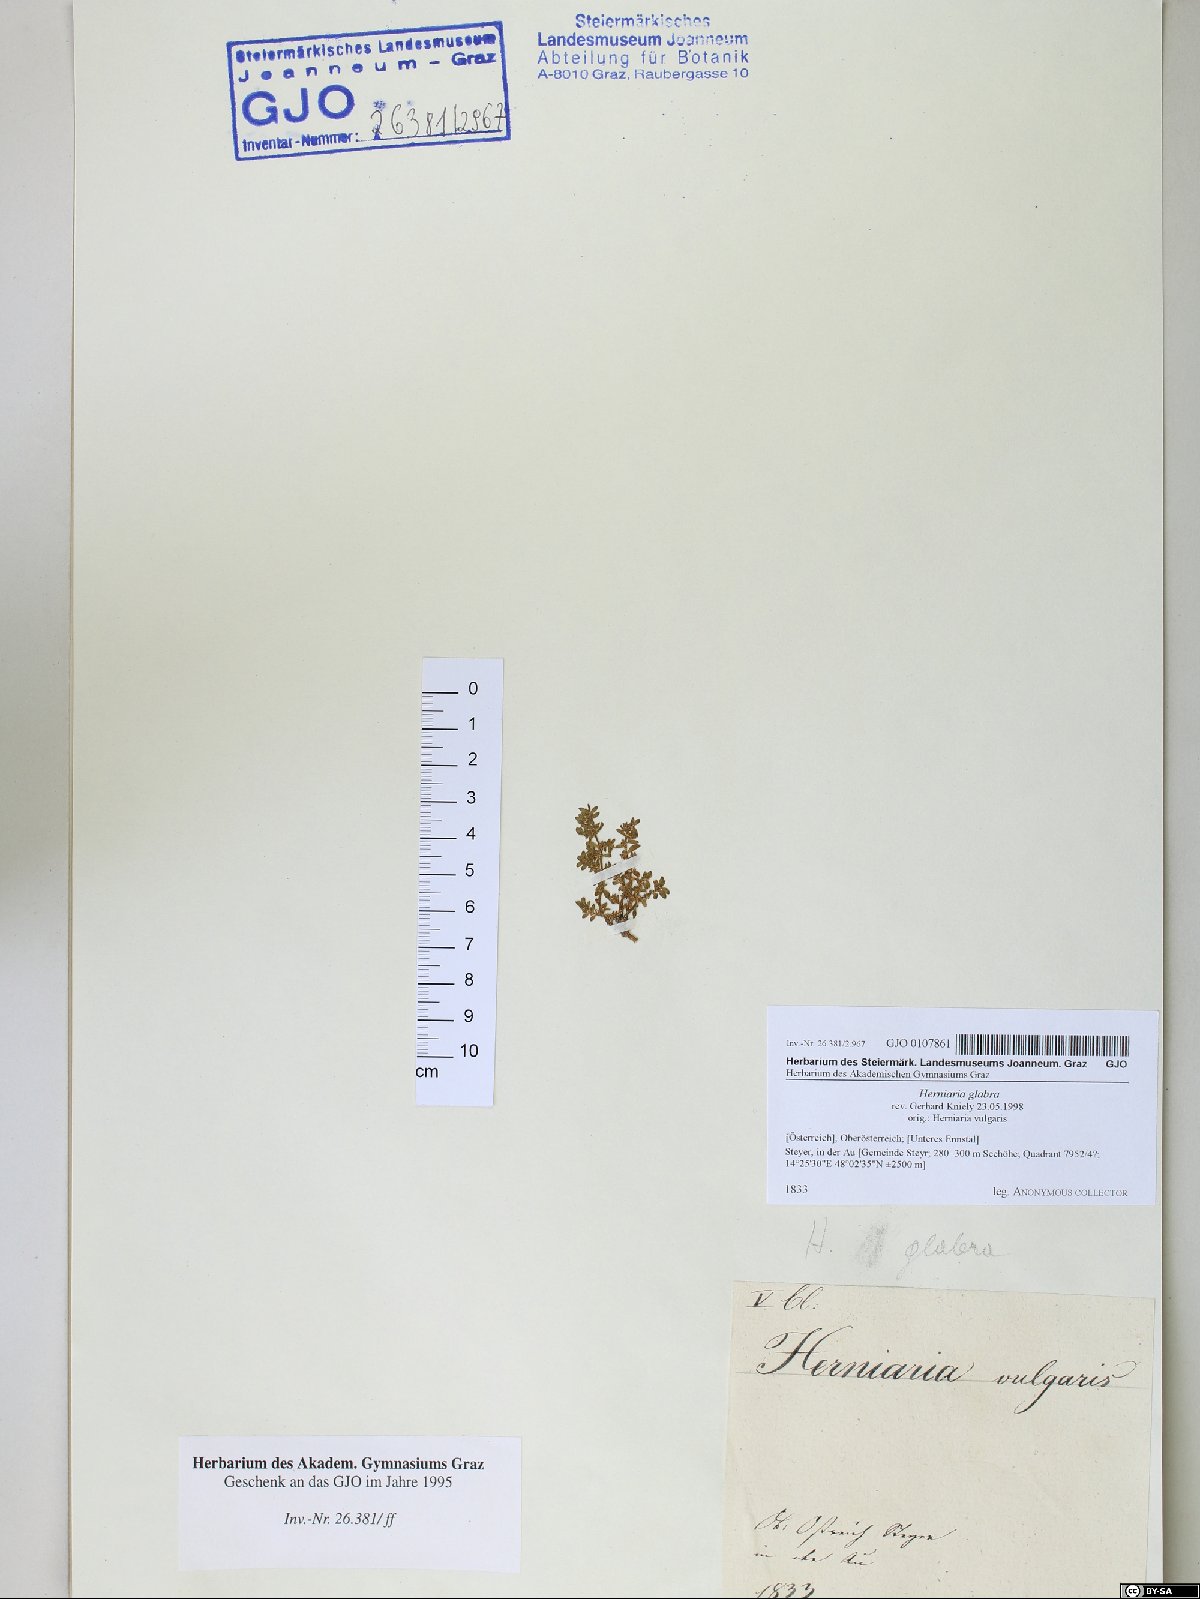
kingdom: Plantae
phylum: Tracheophyta
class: Magnoliopsida
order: Caryophyllales
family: Caryophyllaceae
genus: Herniaria
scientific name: Herniaria glabra
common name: Smooth rupturewort
